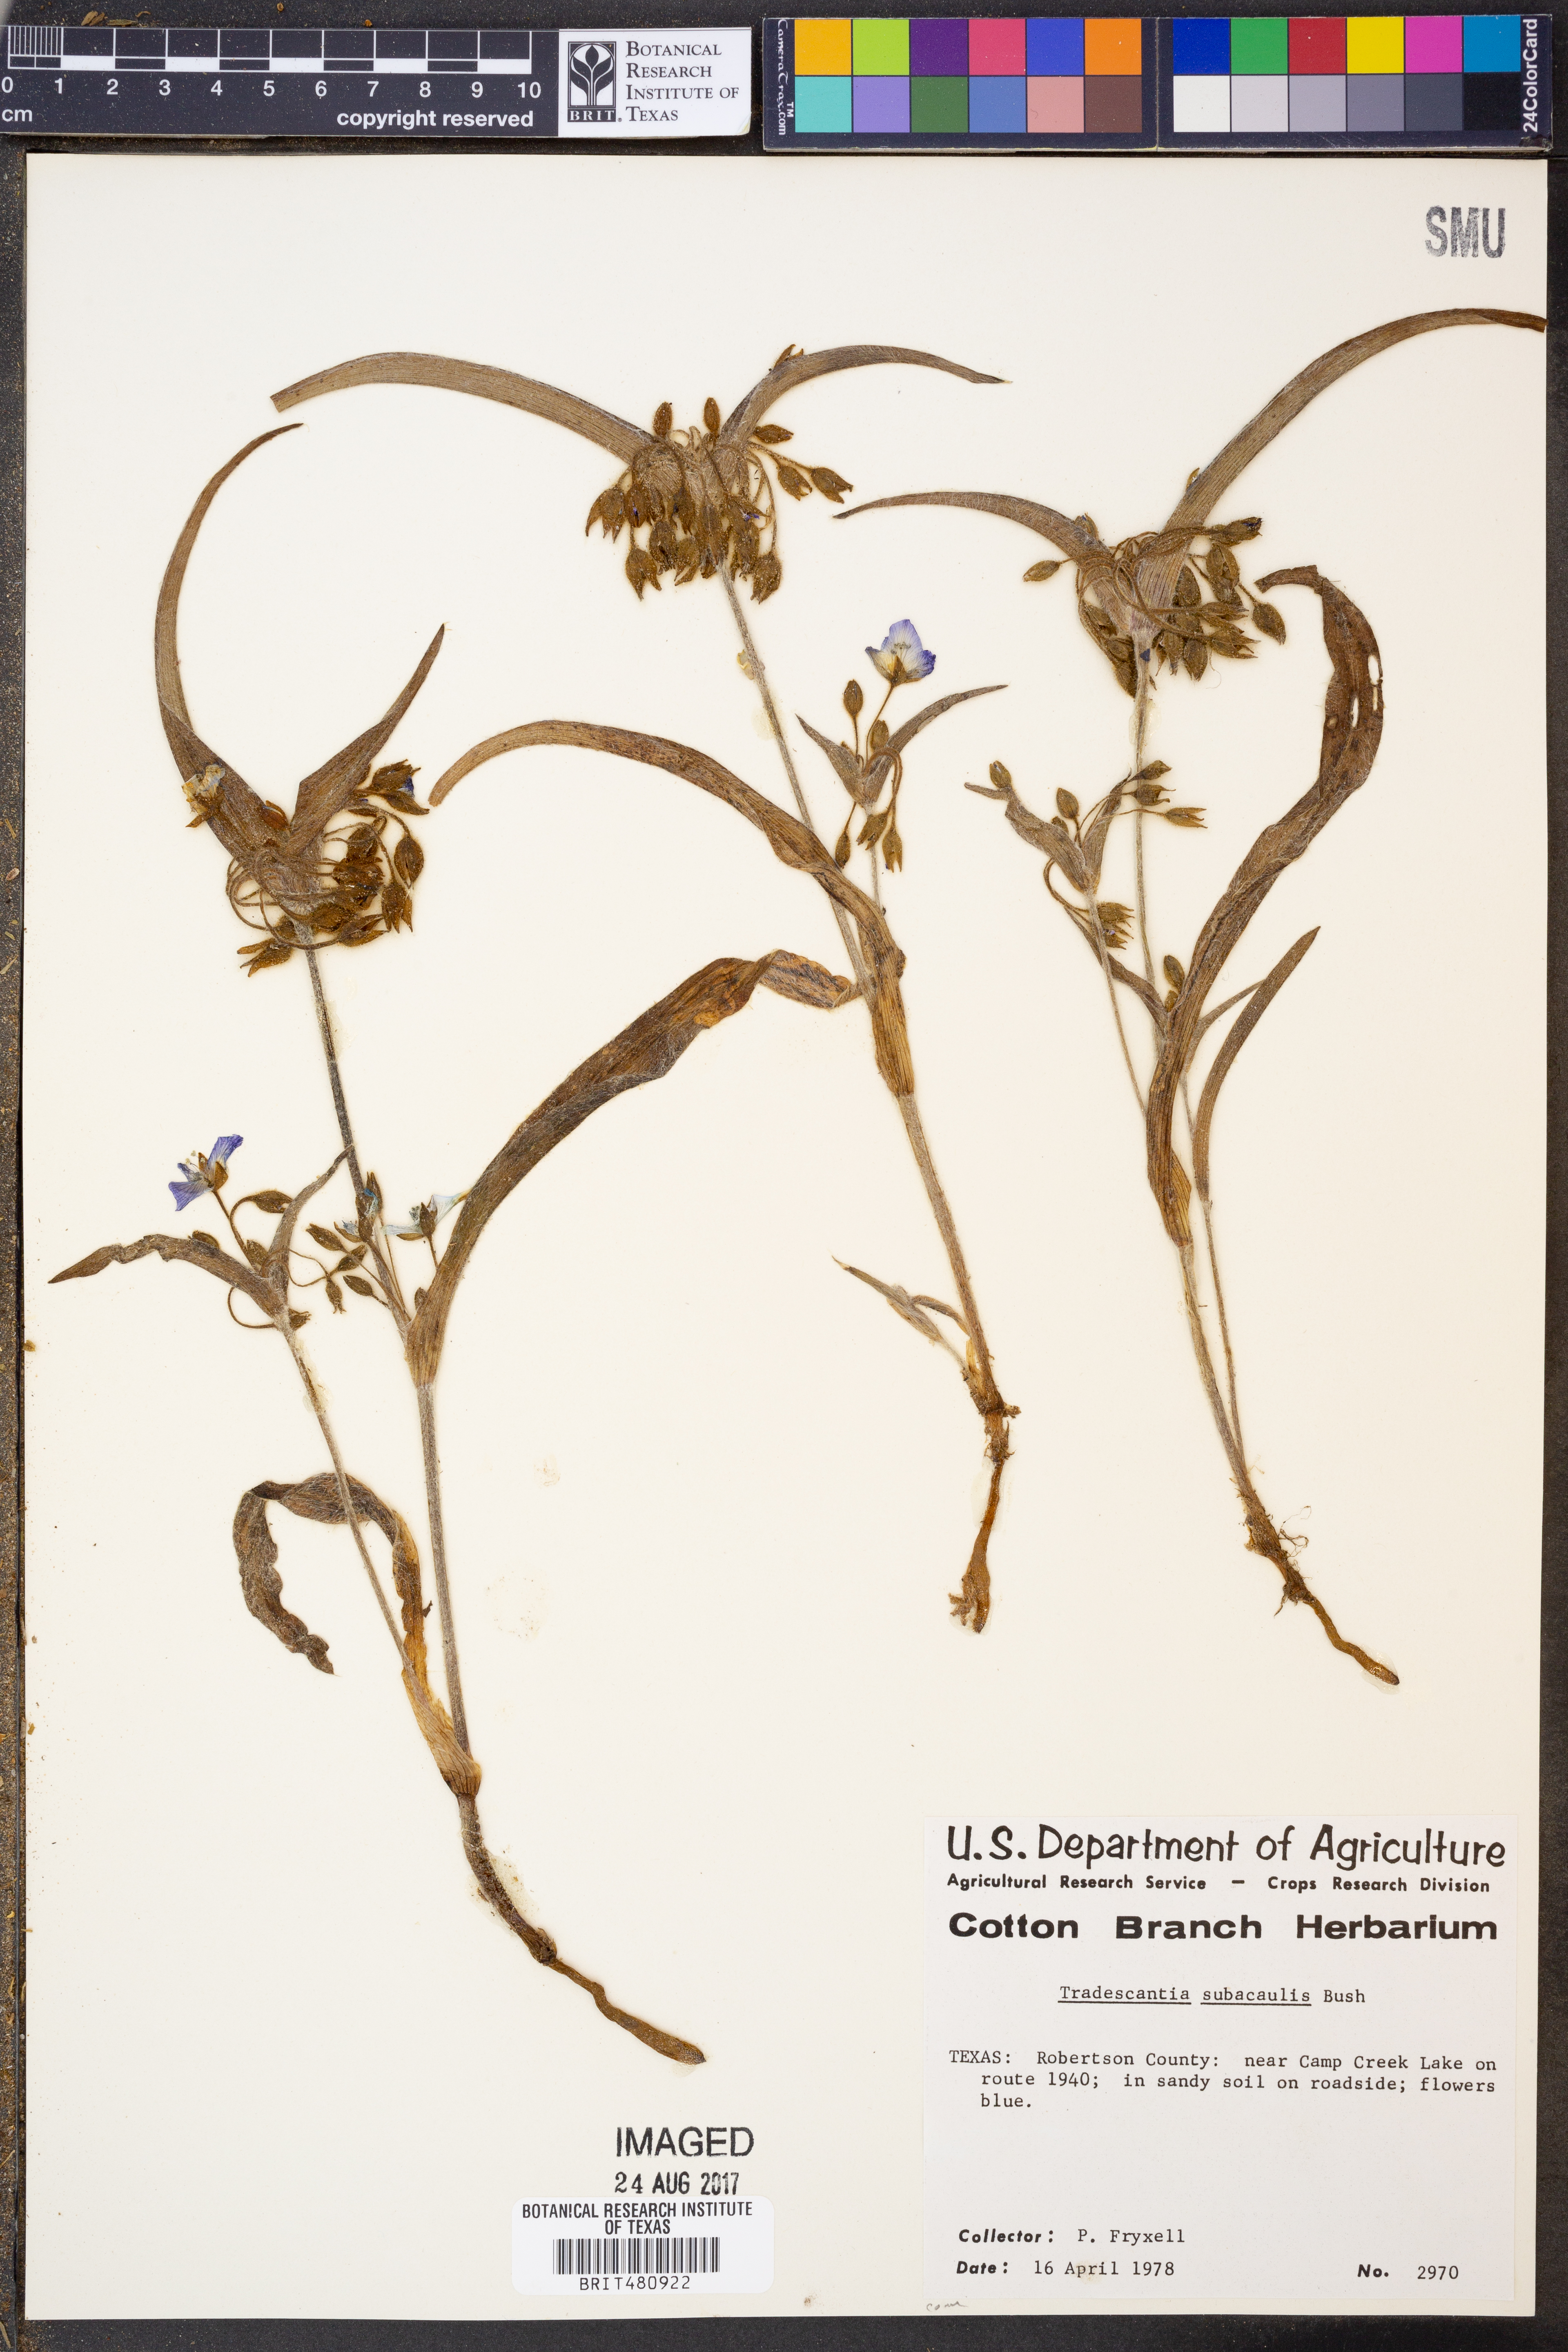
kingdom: Plantae
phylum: Tracheophyta
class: Liliopsida
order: Commelinales
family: Commelinaceae
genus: Tradescantia
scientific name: Tradescantia subacaulis
